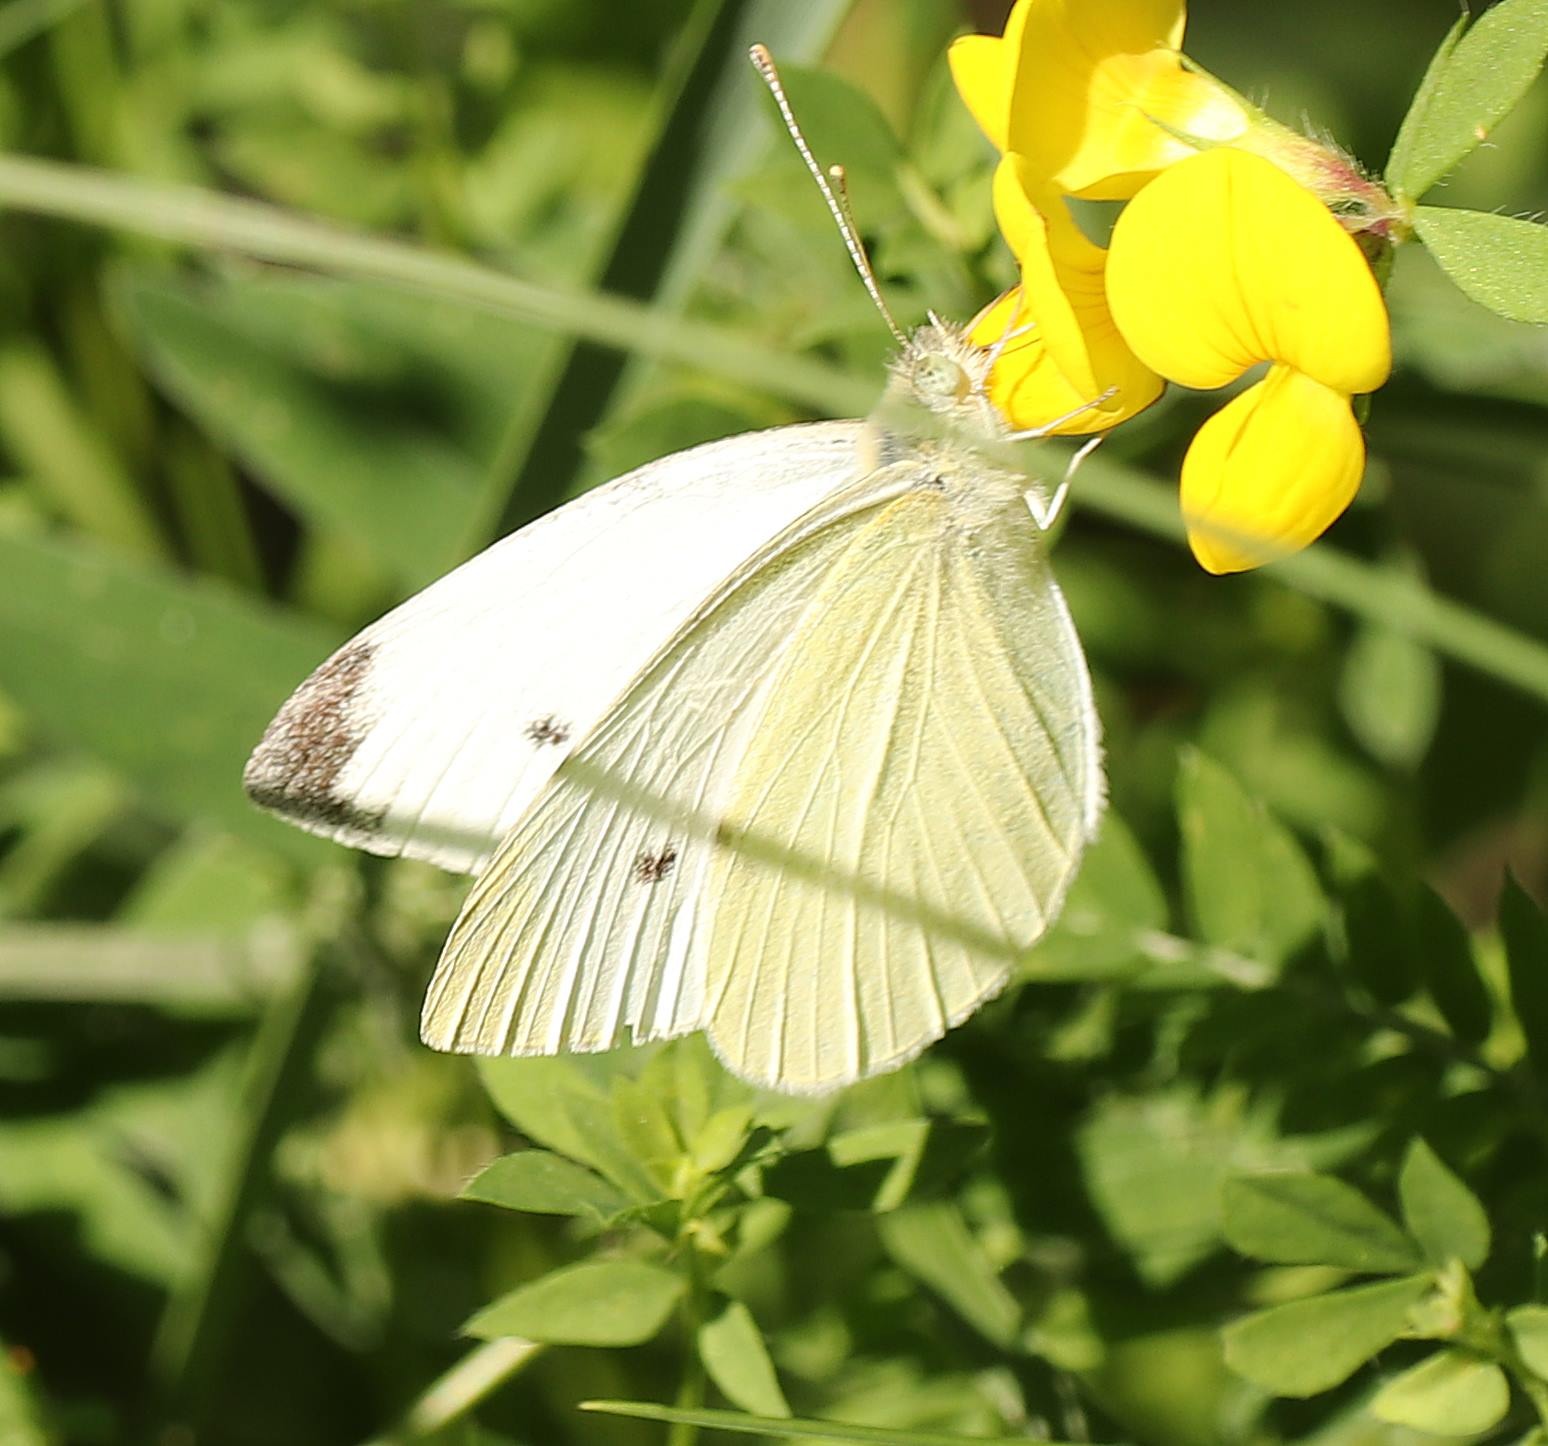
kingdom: Animalia
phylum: Arthropoda
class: Insecta
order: Lepidoptera
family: Pieridae
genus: Pieris
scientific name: Pieris rapae
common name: Lille kålsommerfugl
